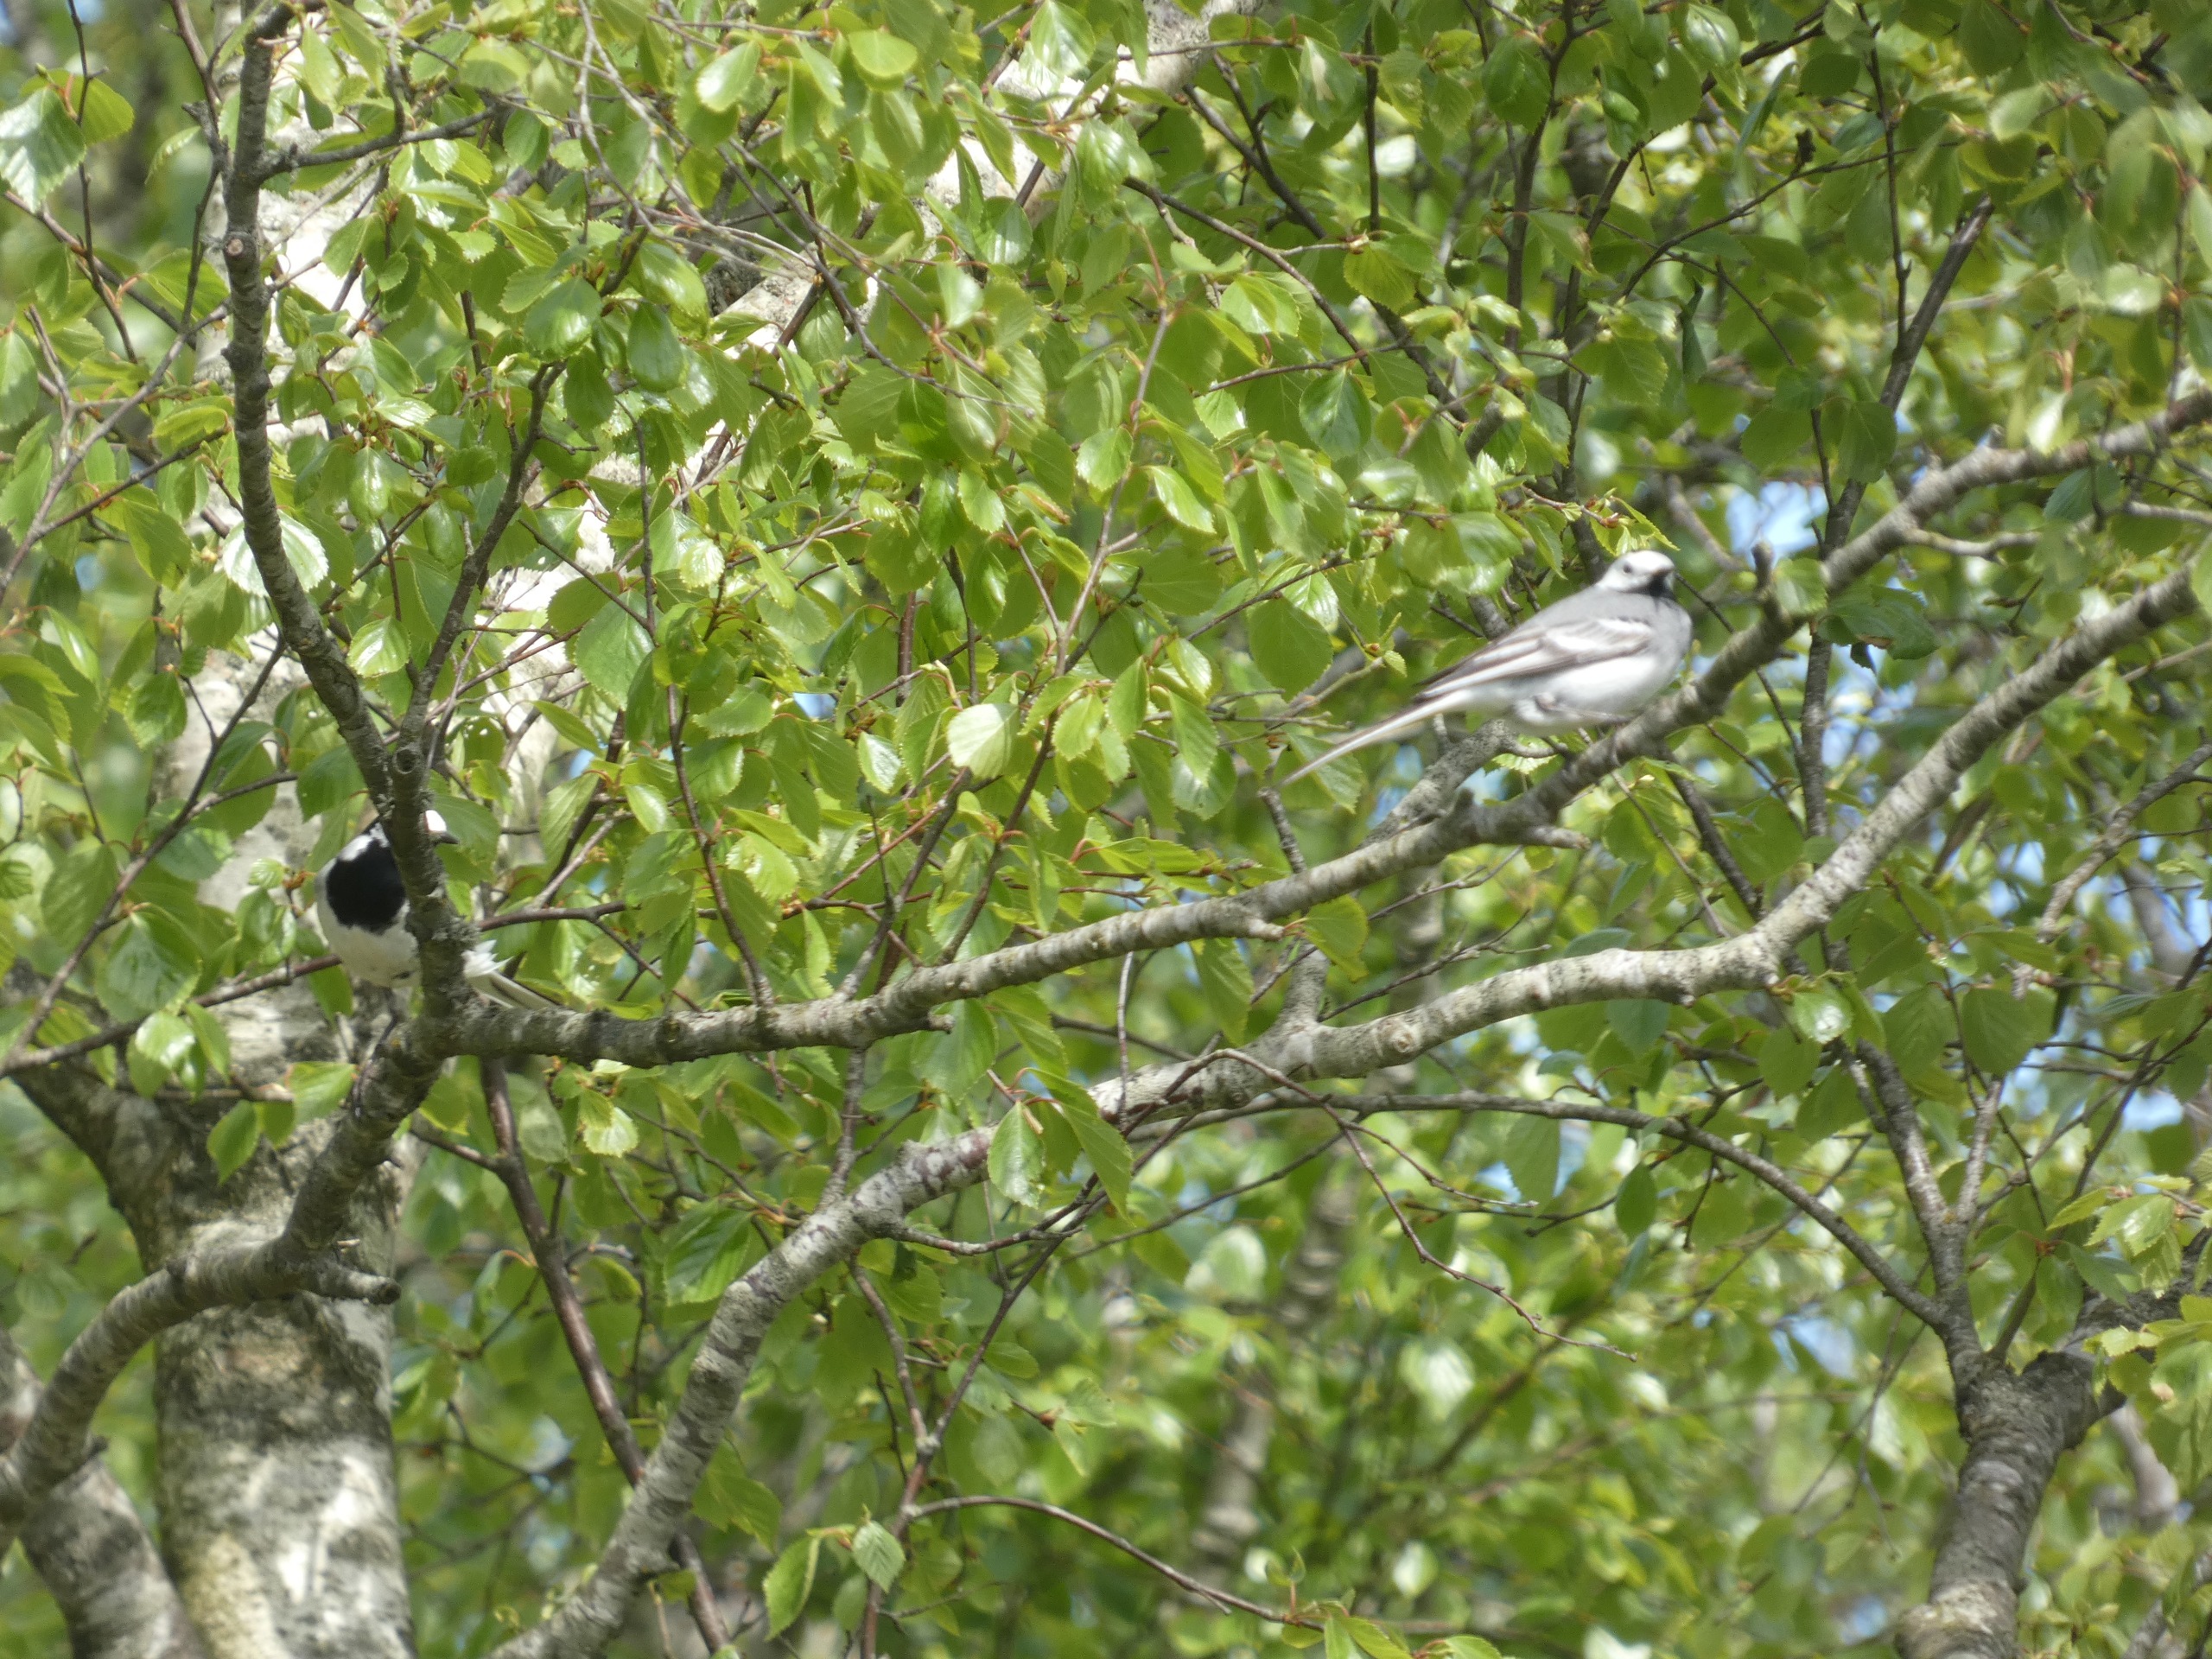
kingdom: Animalia
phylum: Chordata
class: Aves
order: Passeriformes
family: Motacillidae
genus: Motacilla
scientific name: Motacilla alba
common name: Hvid vipstjert
